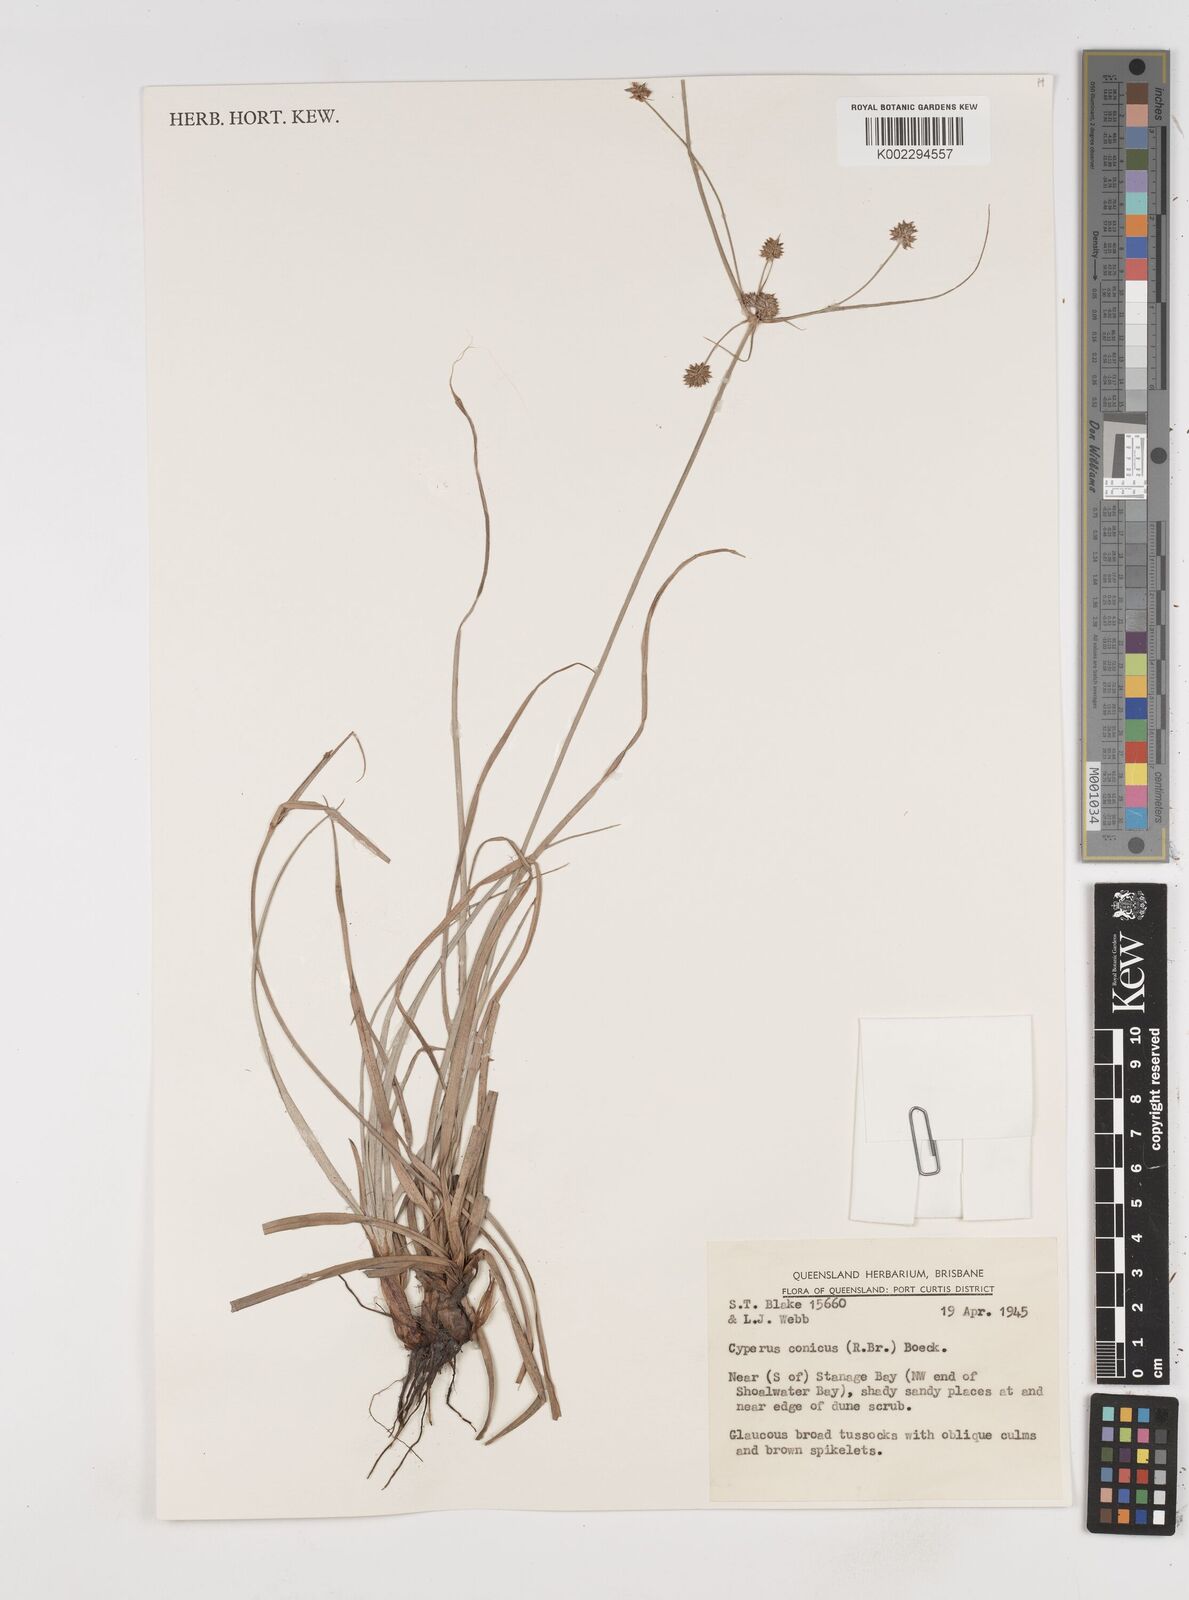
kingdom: Plantae
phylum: Tracheophyta
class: Liliopsida
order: Poales
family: Cyperaceae
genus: Cyperus
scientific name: Cyperus conicus
